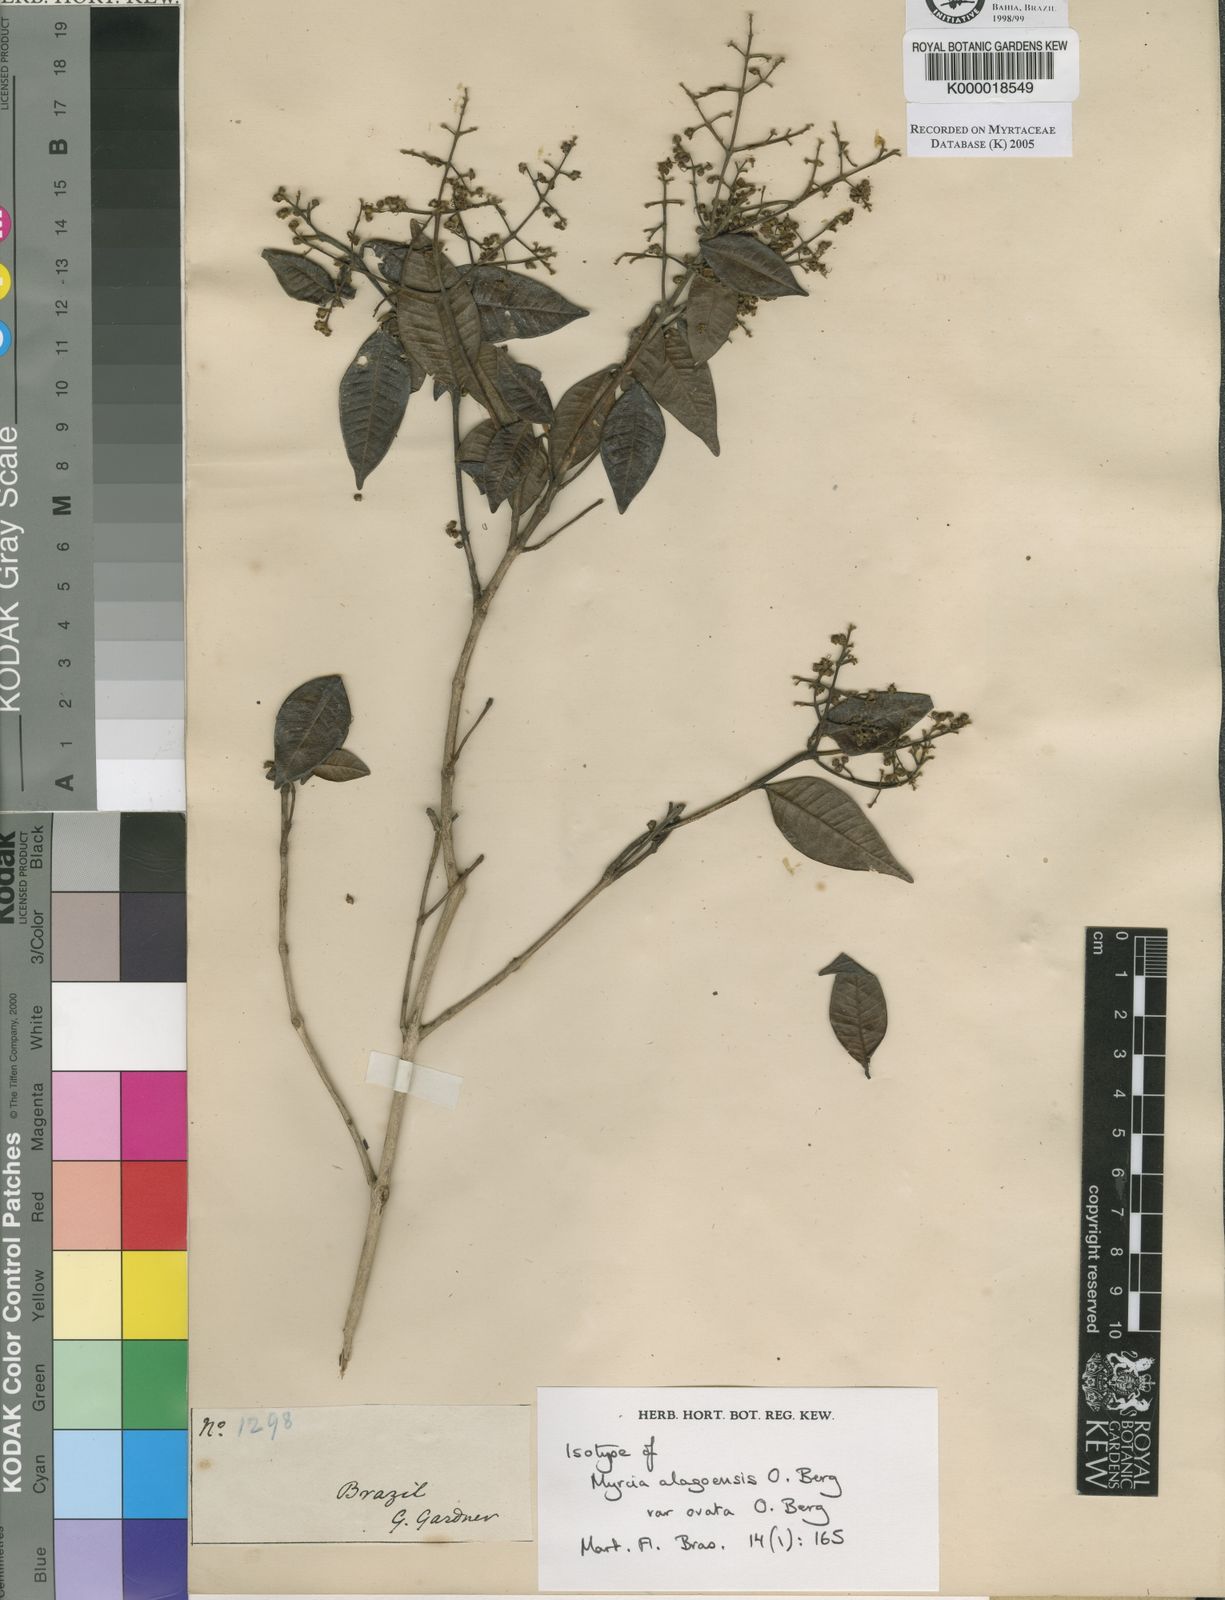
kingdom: Plantae
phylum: Tracheophyta
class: Magnoliopsida
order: Myrtales
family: Myrtaceae
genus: Myrcia
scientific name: Myrcia splendens
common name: Surinam cherry
